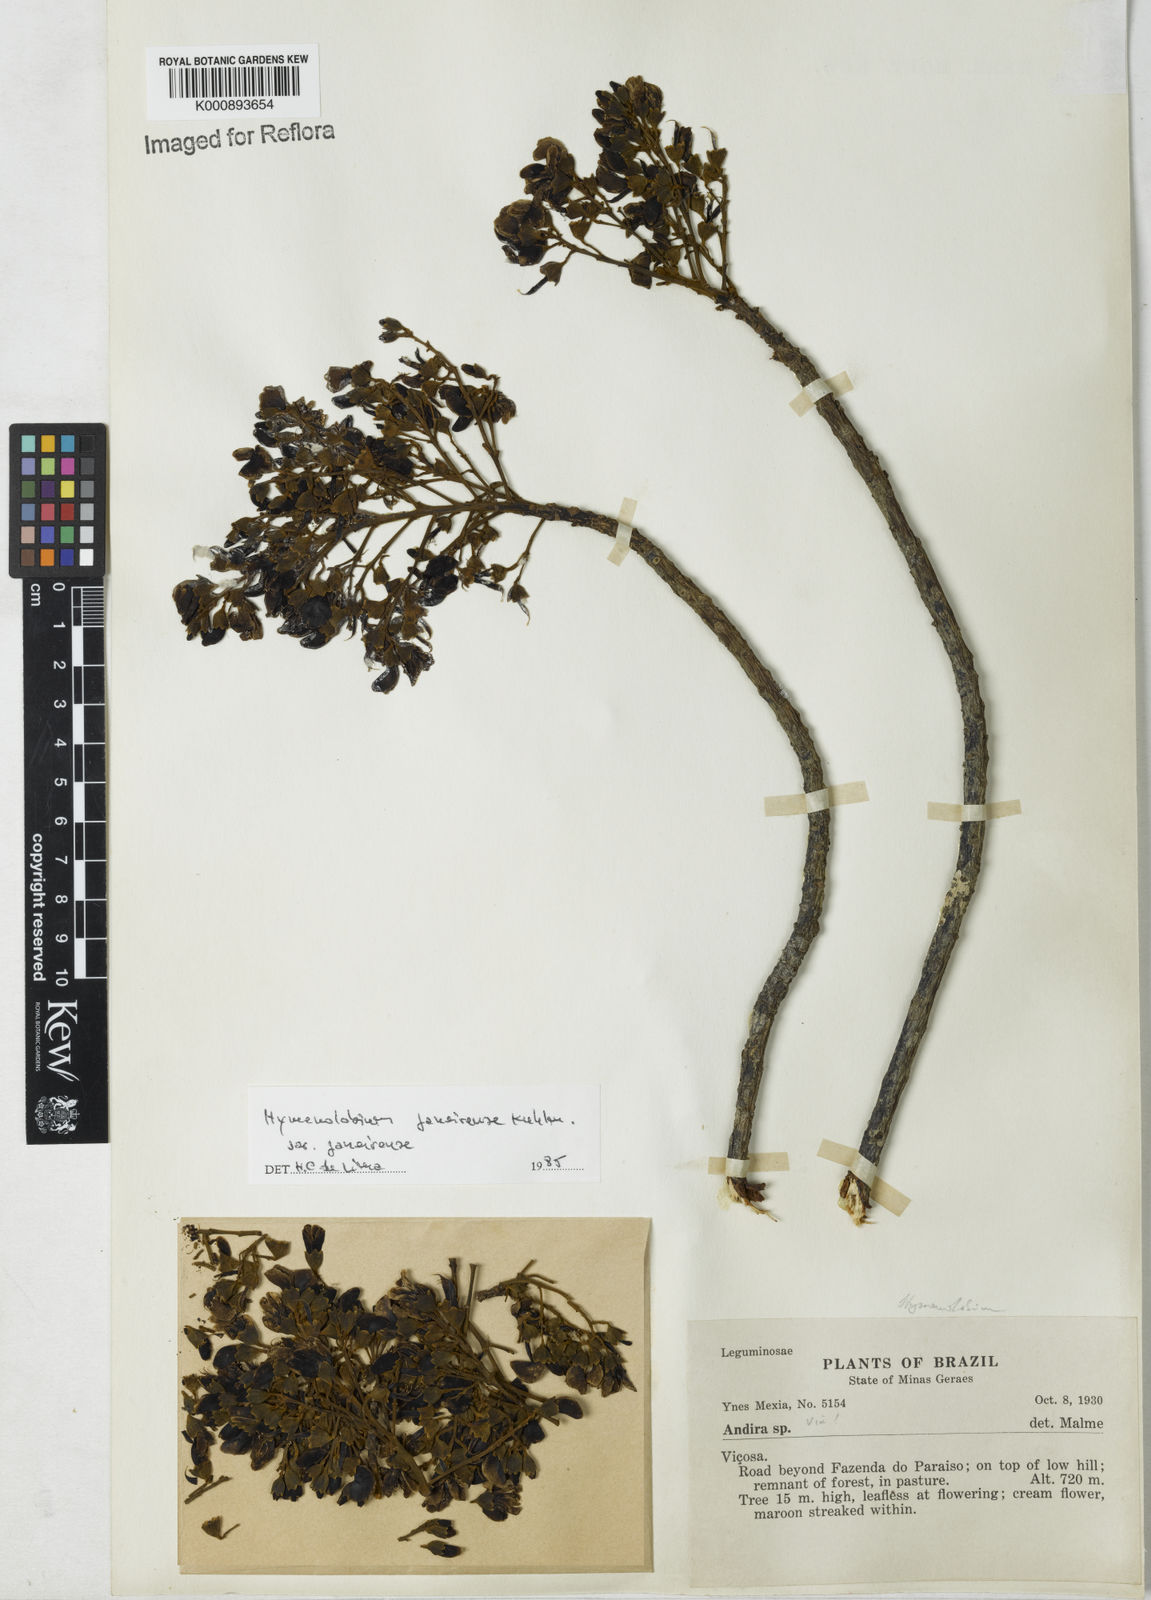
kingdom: Plantae
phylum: Tracheophyta
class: Magnoliopsida
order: Fabales
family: Fabaceae
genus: Hymenolobium
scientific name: Hymenolobium janeirense
